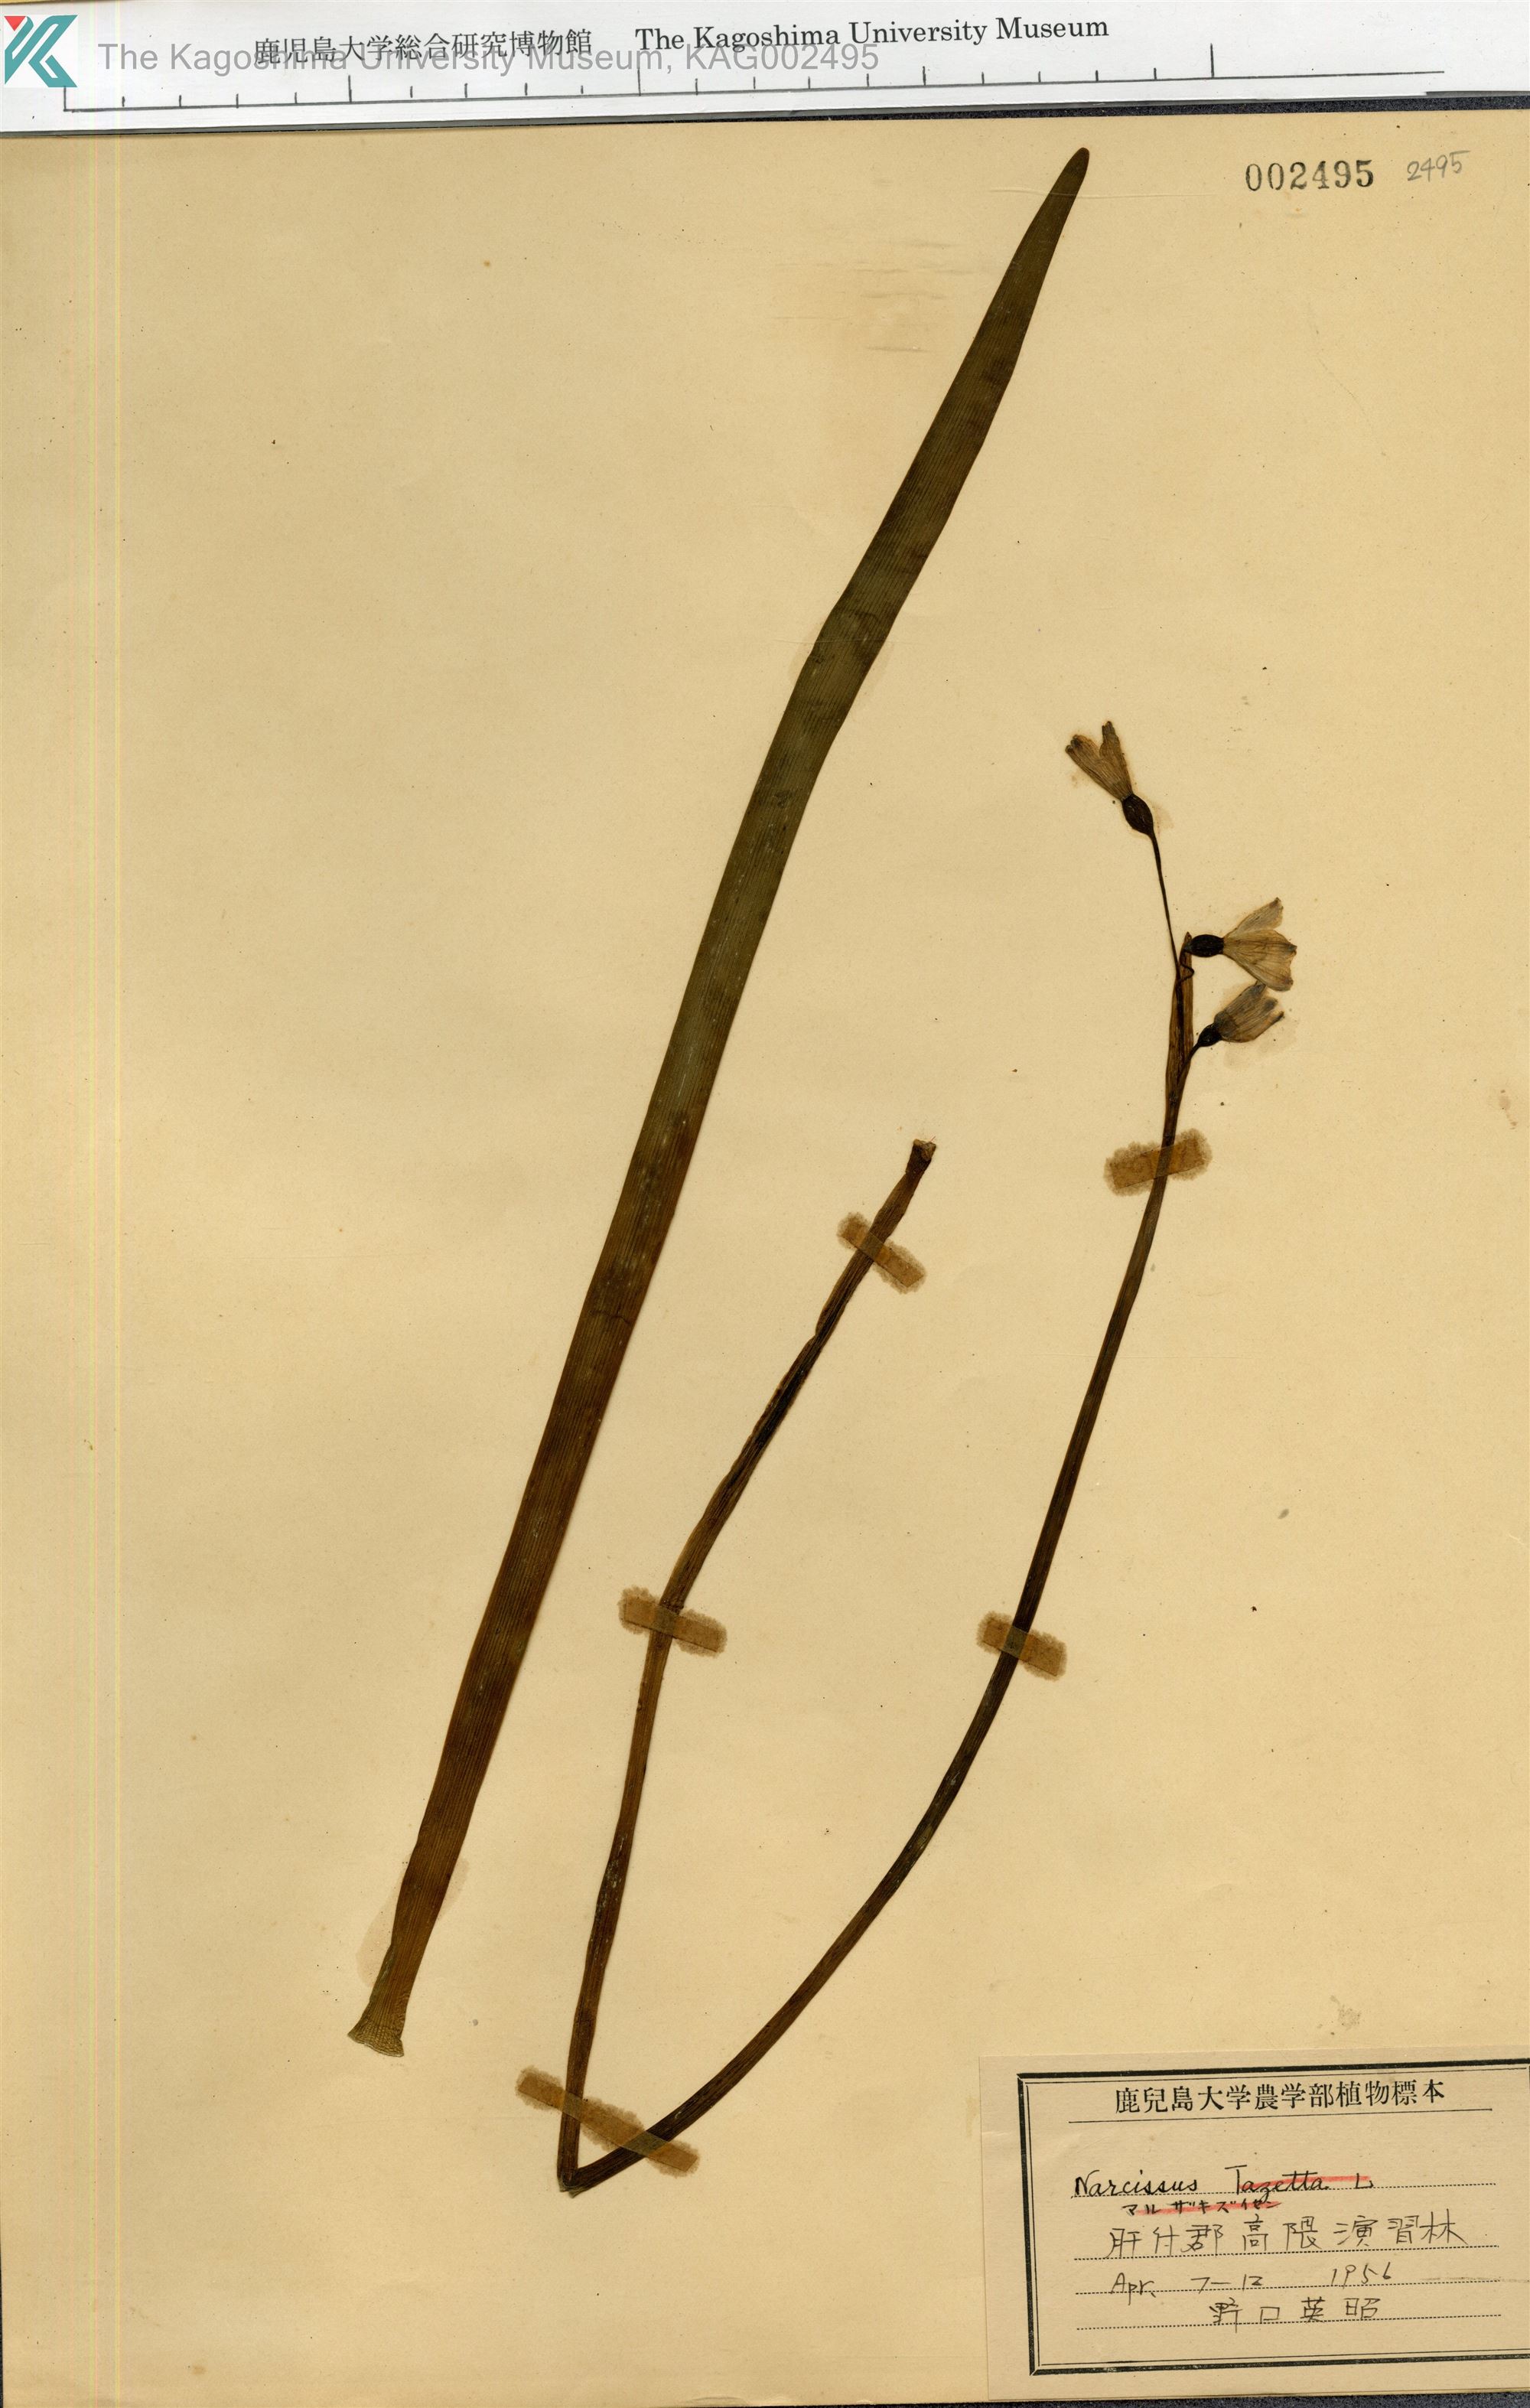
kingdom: Plantae
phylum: Tracheophyta
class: Liliopsida
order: Asparagales
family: Amaryllidaceae
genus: Narcissus
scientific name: Narcissus
